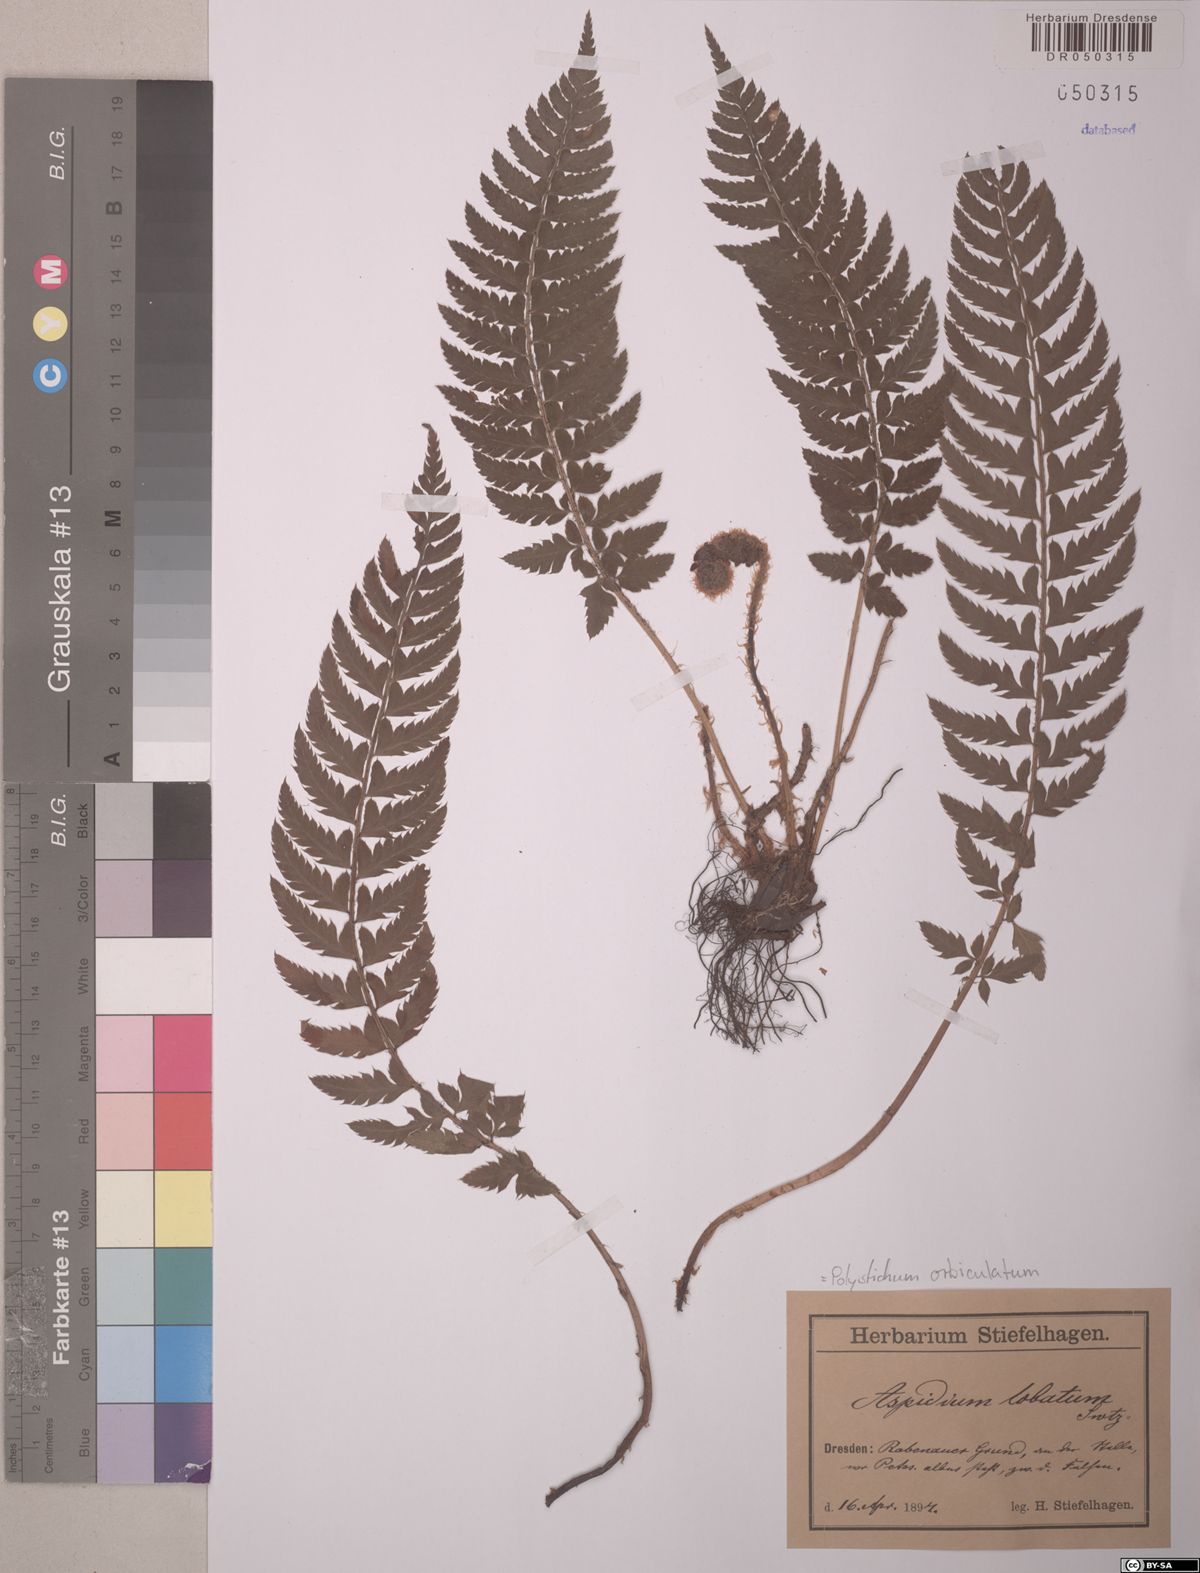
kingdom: Plantae
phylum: Tracheophyta
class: Polypodiopsida
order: Polypodiales
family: Dryopteridaceae
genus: Polystichum
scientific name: Polystichum aculeatum
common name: Hard shield-fern
